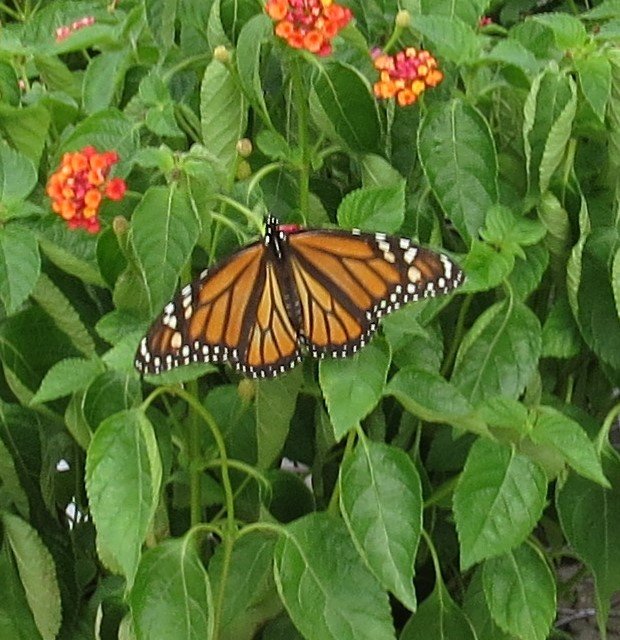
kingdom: Animalia
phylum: Arthropoda
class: Insecta
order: Lepidoptera
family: Nymphalidae
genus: Danaus
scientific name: Danaus plexippus
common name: Monarch
